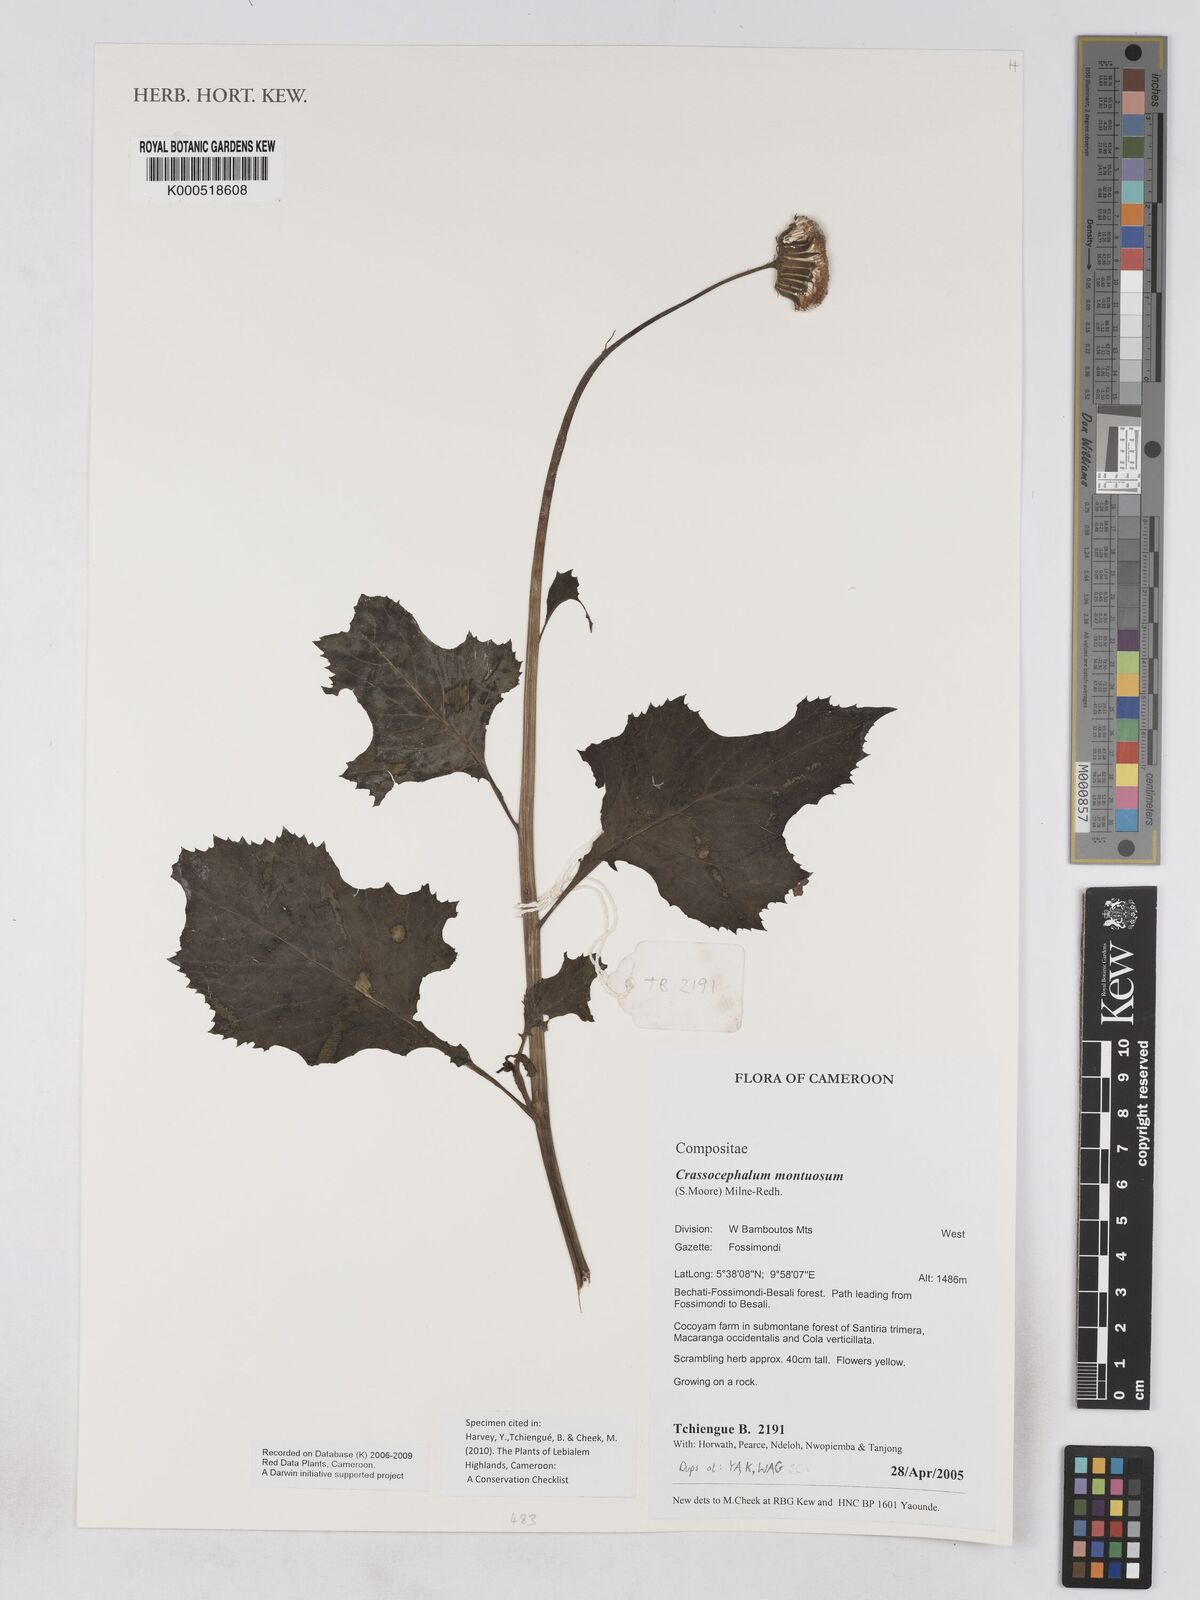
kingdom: Plantae
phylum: Tracheophyta
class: Magnoliopsida
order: Asterales
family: Asteraceae
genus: Crassocephalum
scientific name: Crassocephalum montuosum
